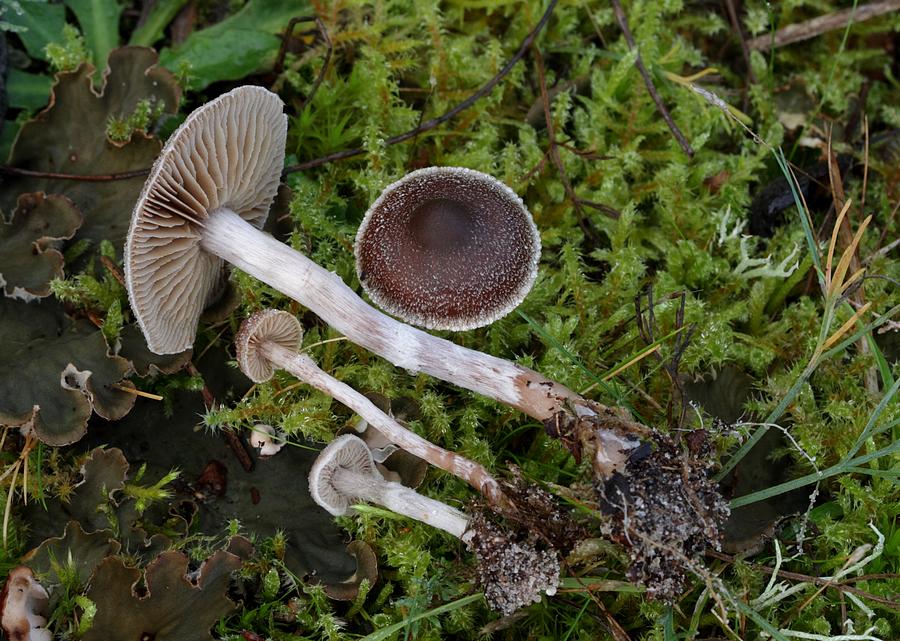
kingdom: Fungi
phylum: Basidiomycota
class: Agaricomycetes
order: Agaricales
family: Cortinariaceae
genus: Cortinarius
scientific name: Cortinarius hemitrichus
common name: hvidfnugget slørhat
